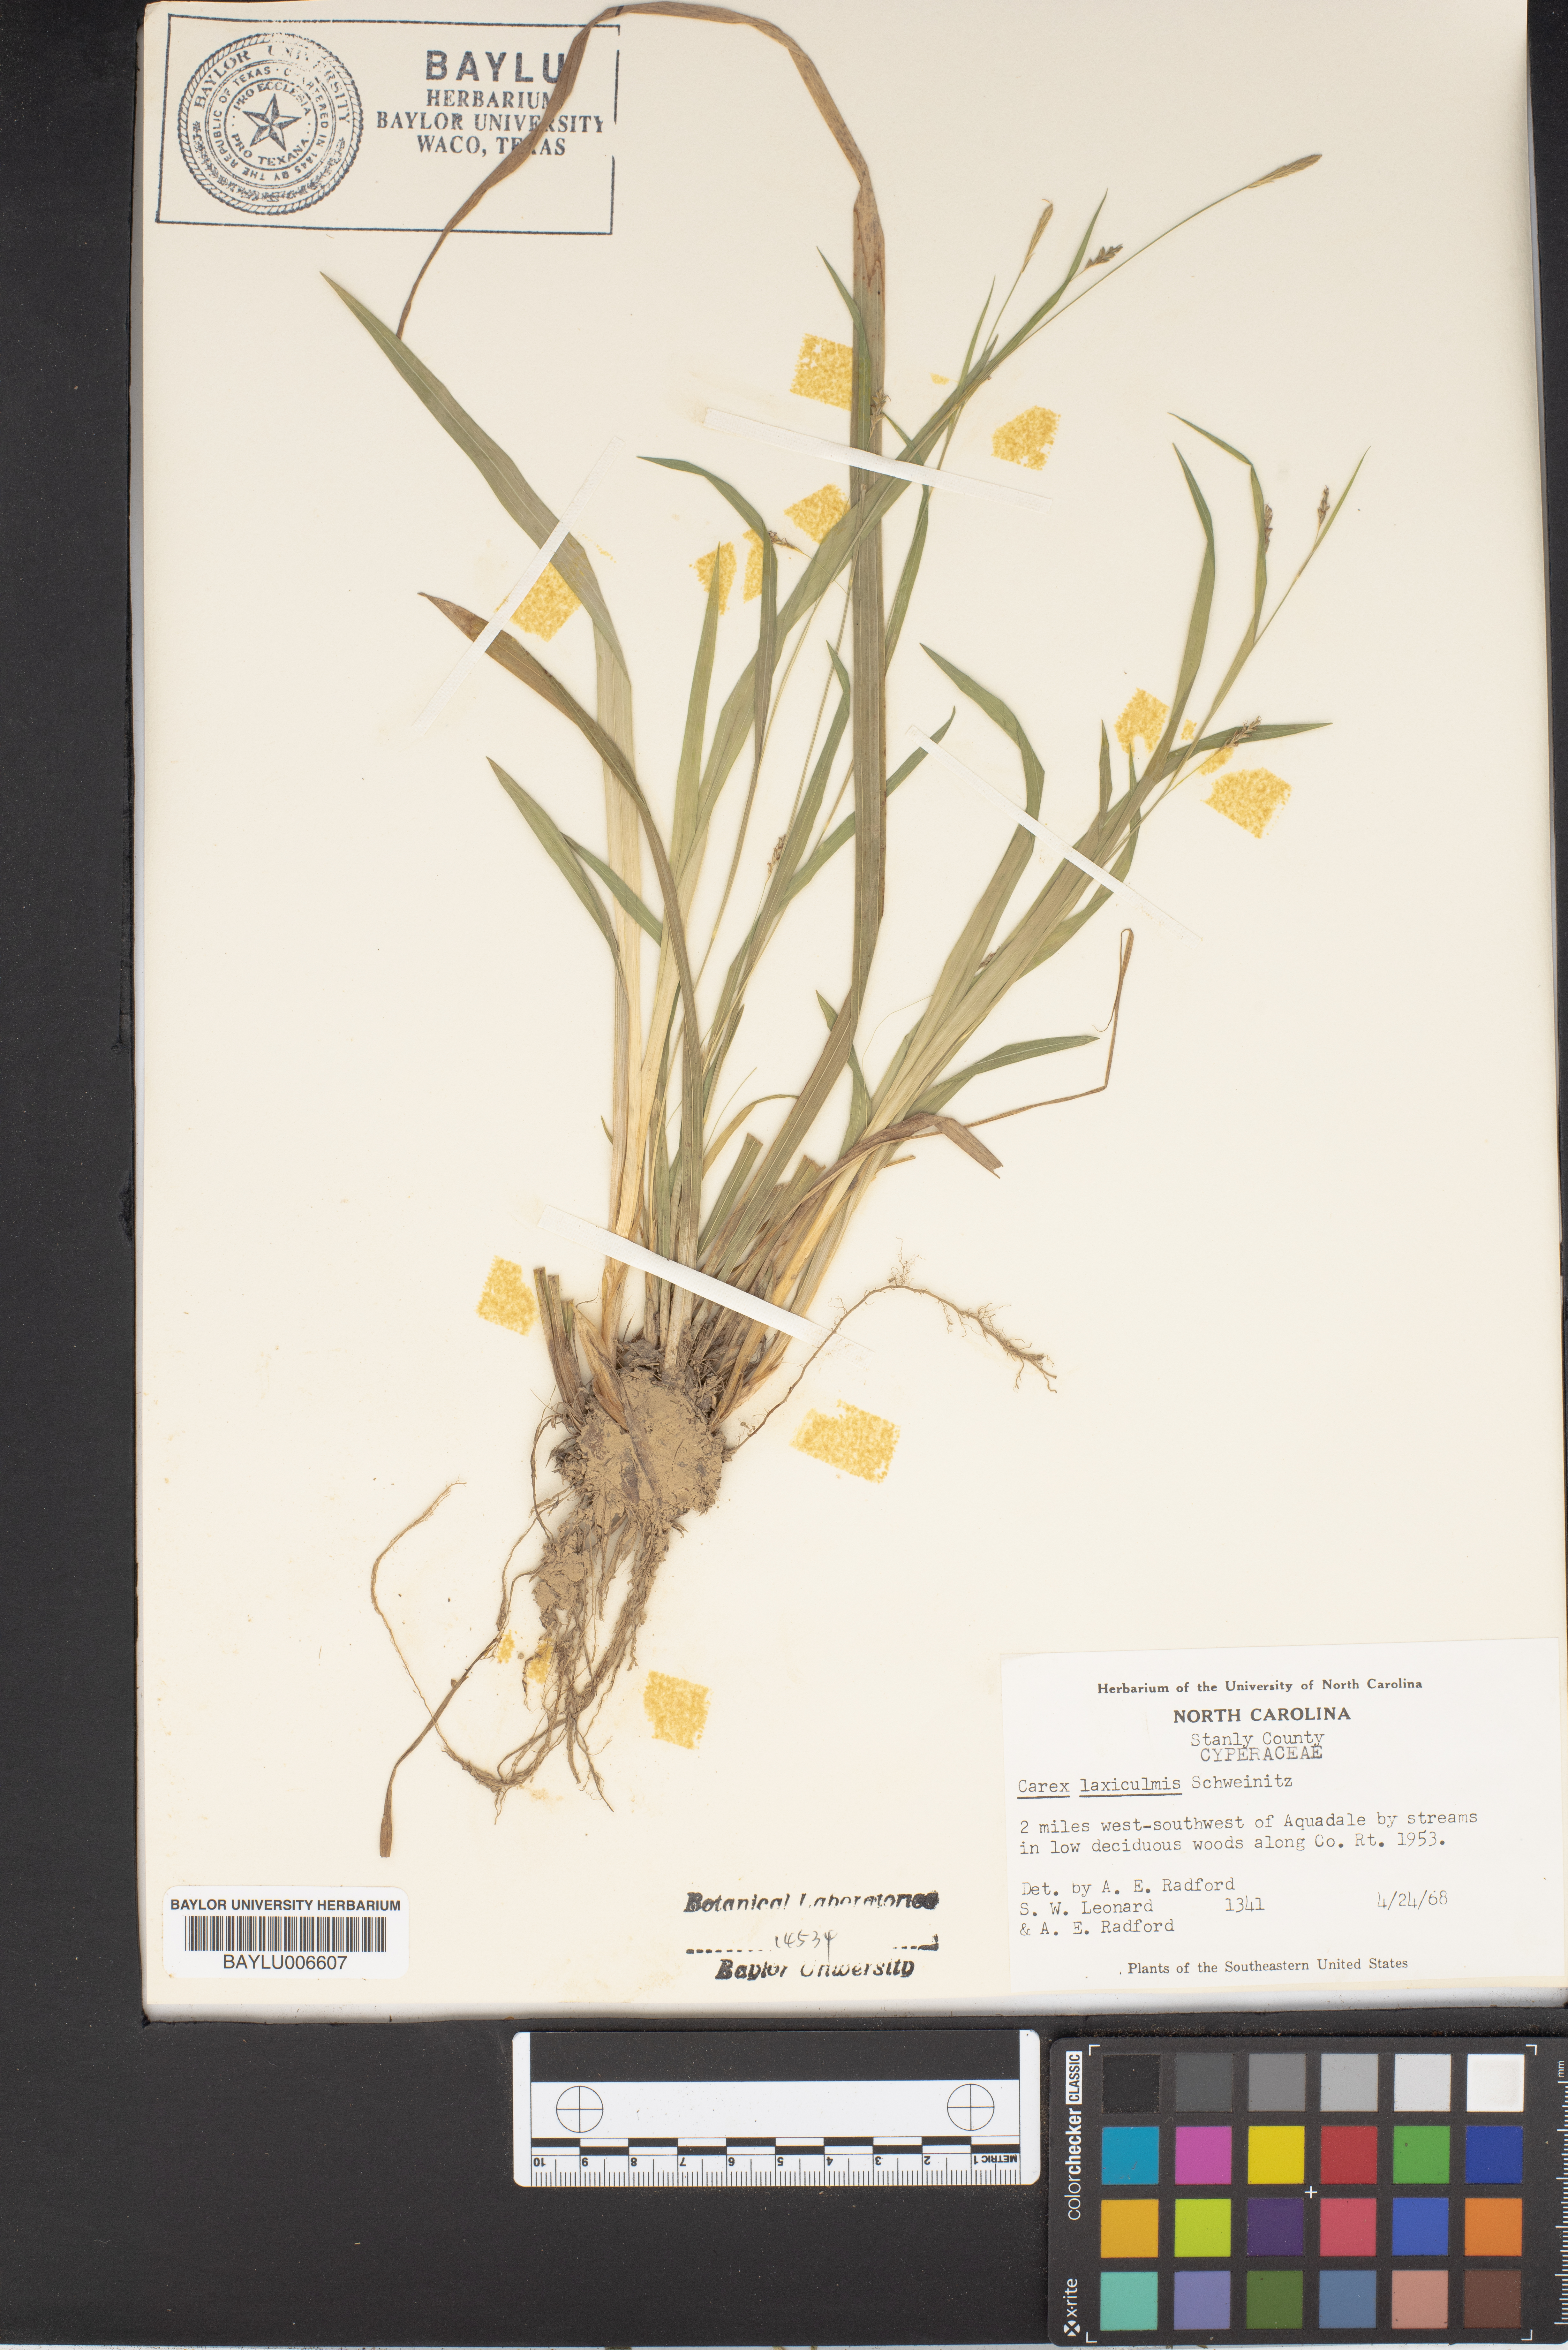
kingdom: Plantae
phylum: Tracheophyta
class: Liliopsida
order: Poales
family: Cyperaceae
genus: Carex
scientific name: Carex laxiculmis
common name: Spreading sedge
